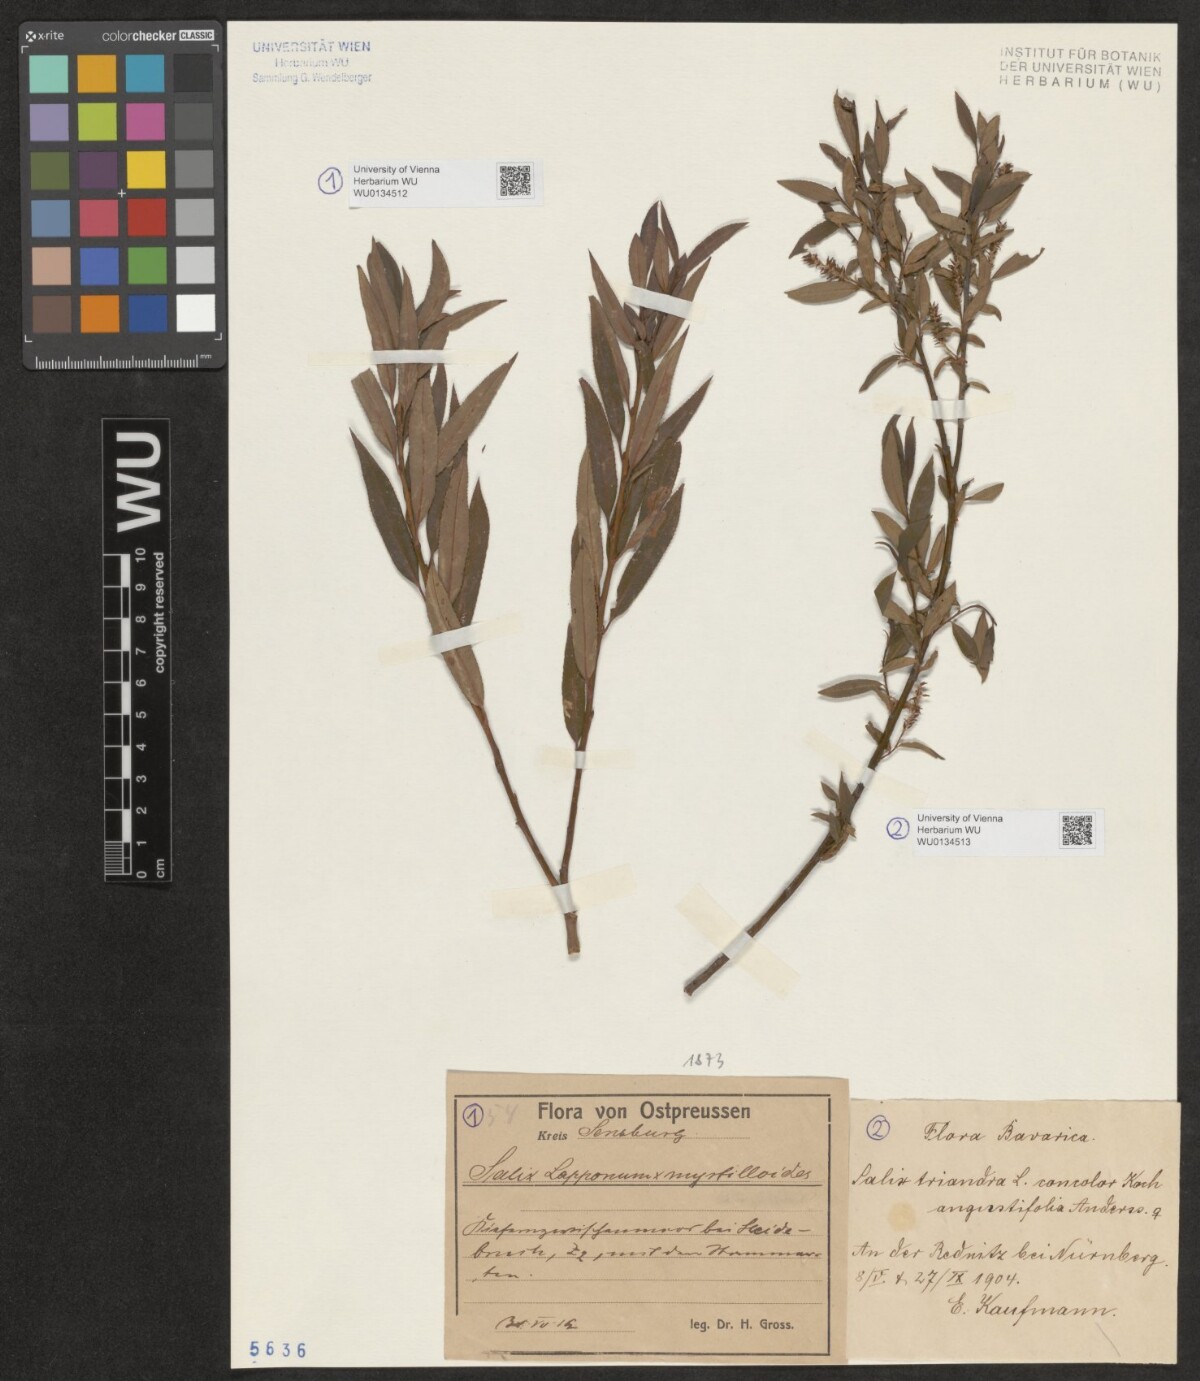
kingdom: Plantae
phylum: Tracheophyta
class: Magnoliopsida
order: Malpighiales
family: Salicaceae
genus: Salix
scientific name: Salix lapponum
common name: Downy willow
